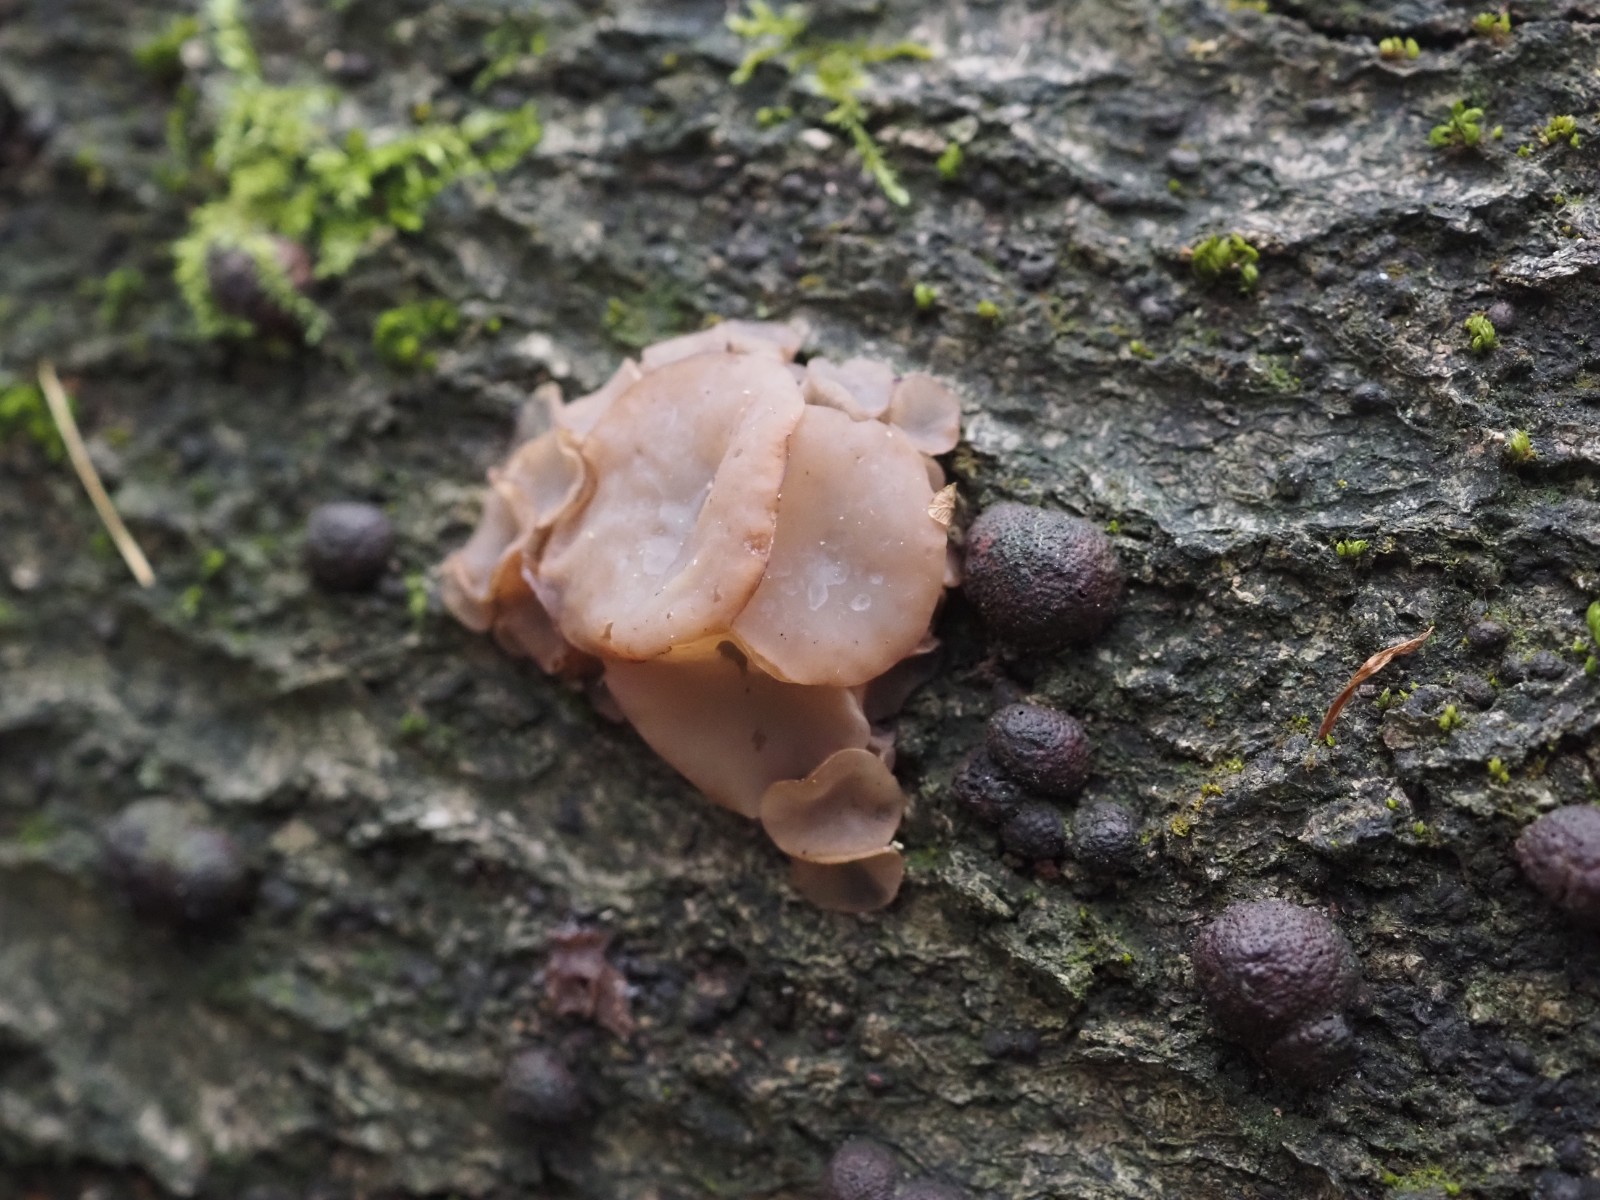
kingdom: Fungi
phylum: Ascomycota
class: Leotiomycetes
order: Helotiales
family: Gelatinodiscaceae
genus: Neobulgaria
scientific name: Neobulgaria pura
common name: bleg bævreskive
